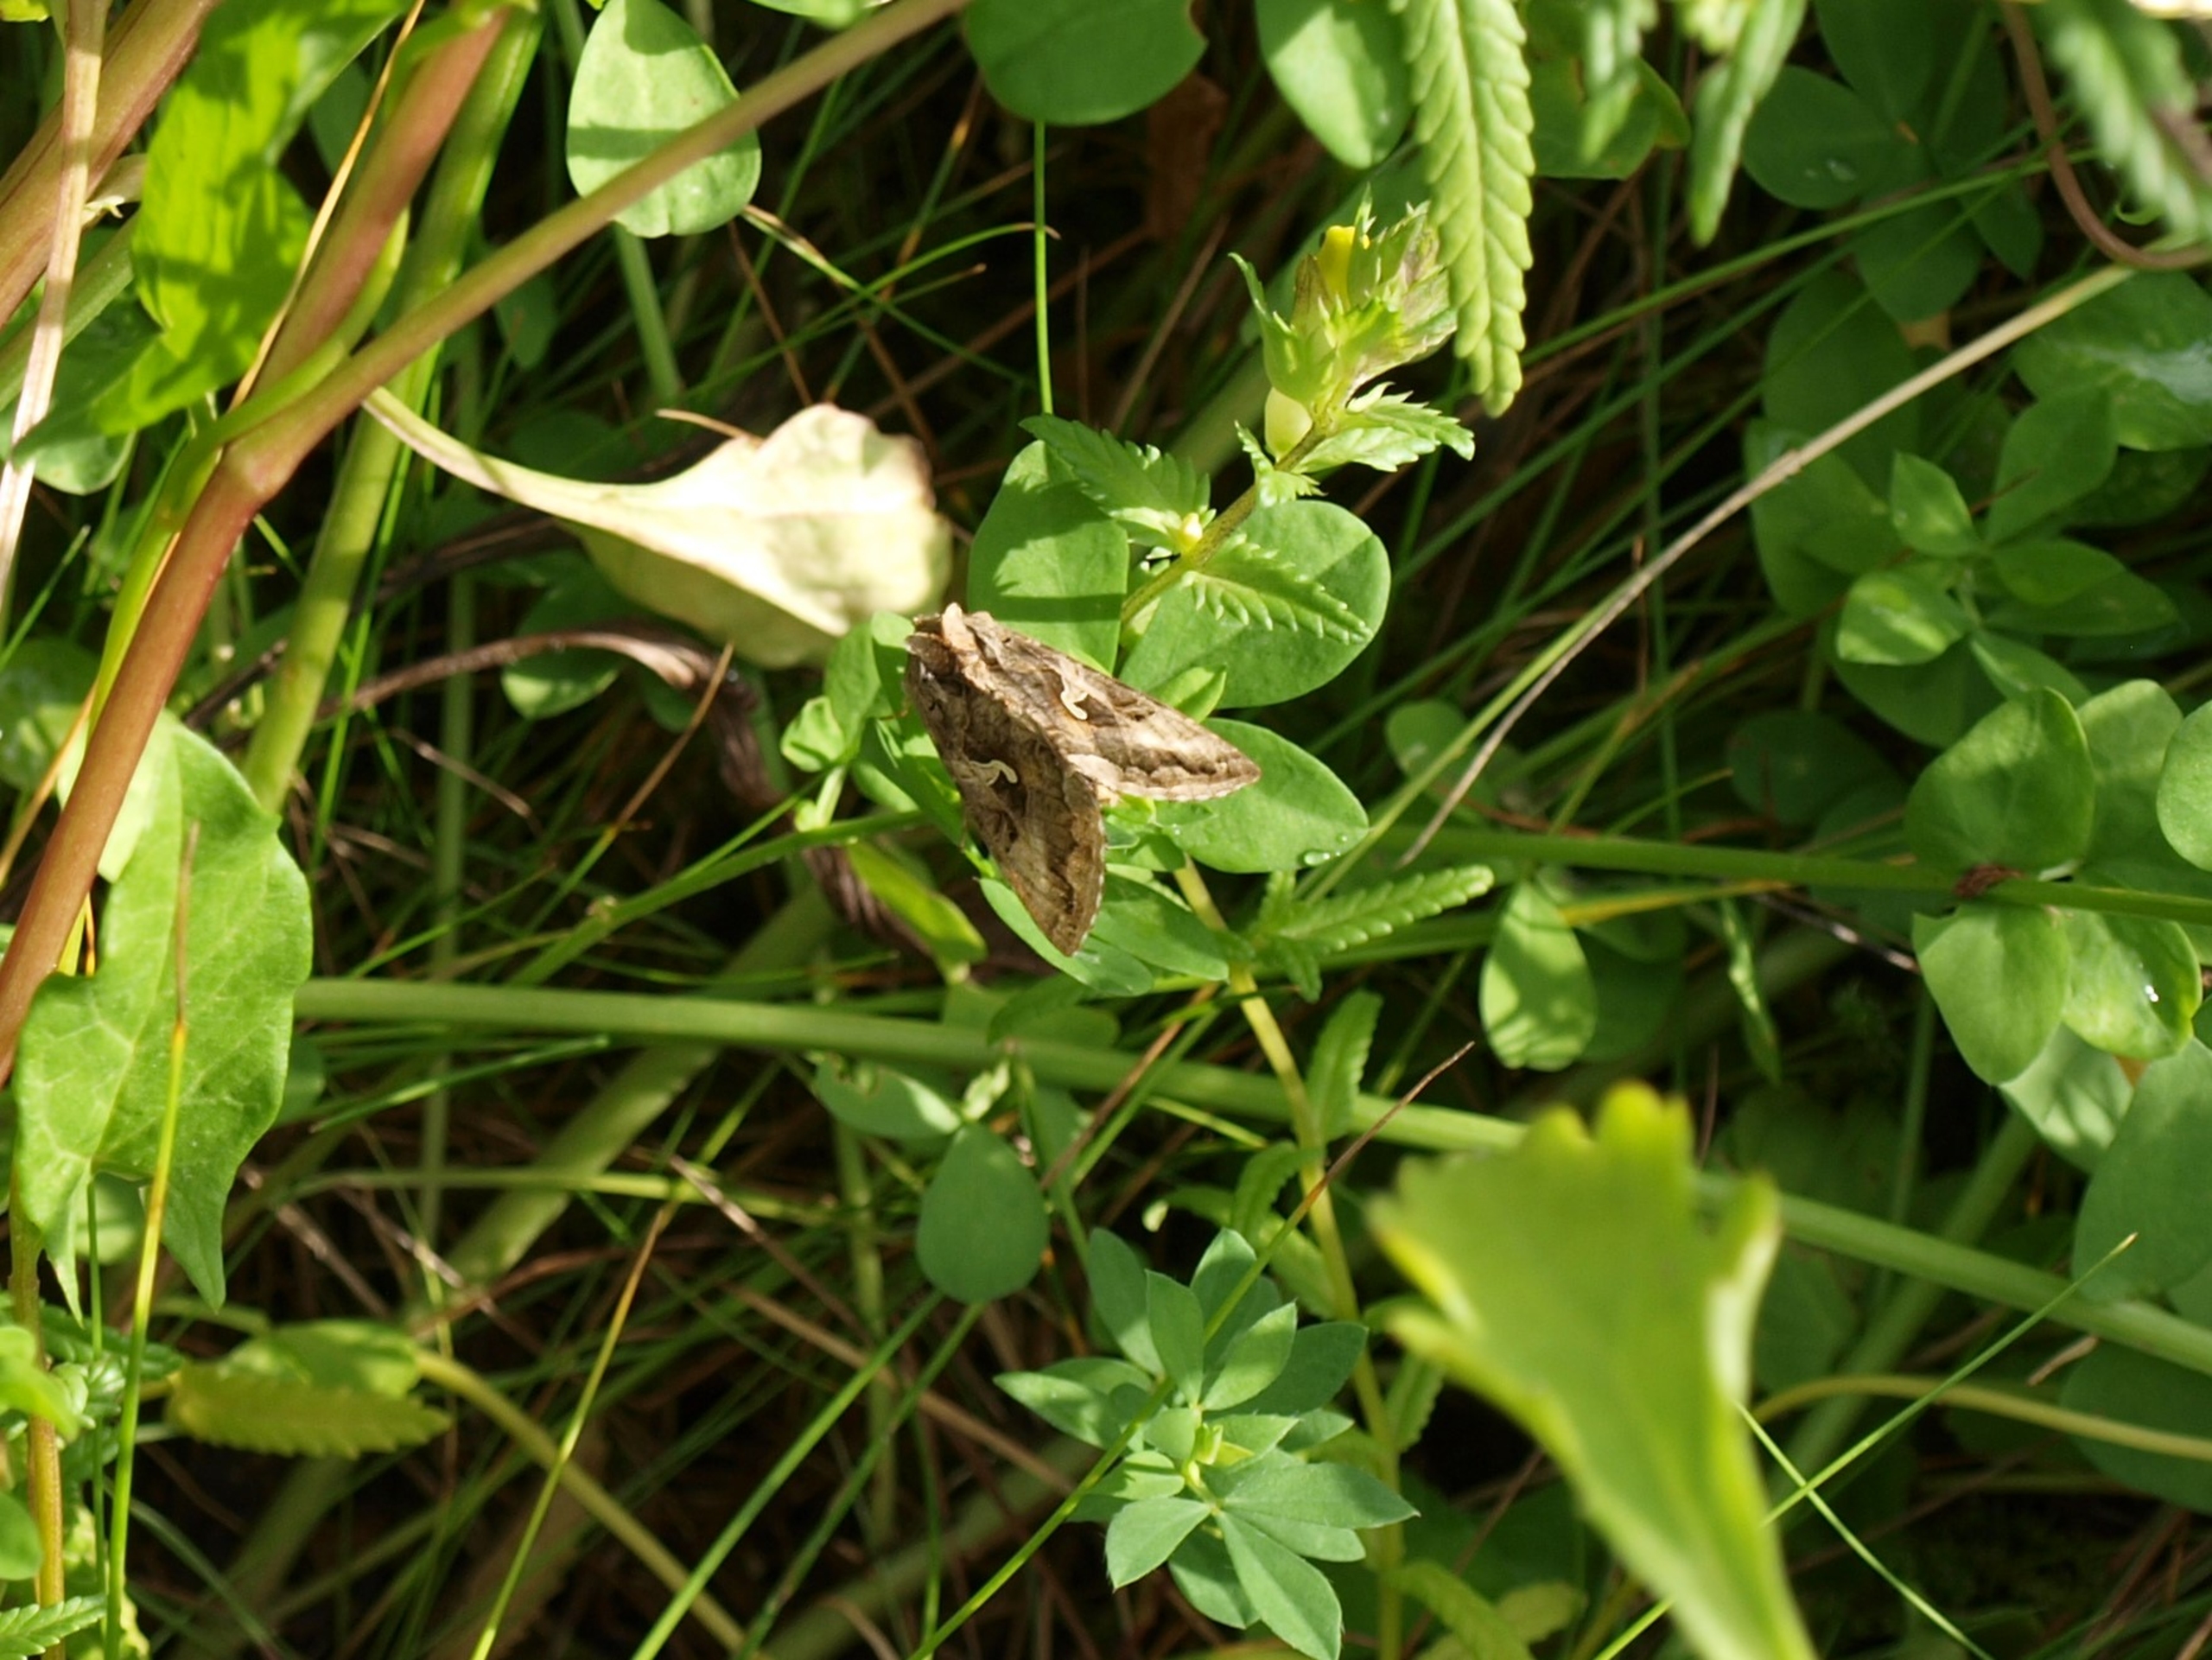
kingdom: Animalia
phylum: Arthropoda
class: Insecta
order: Lepidoptera
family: Noctuidae
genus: Autographa
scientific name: Autographa gamma
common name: Gammaugle
